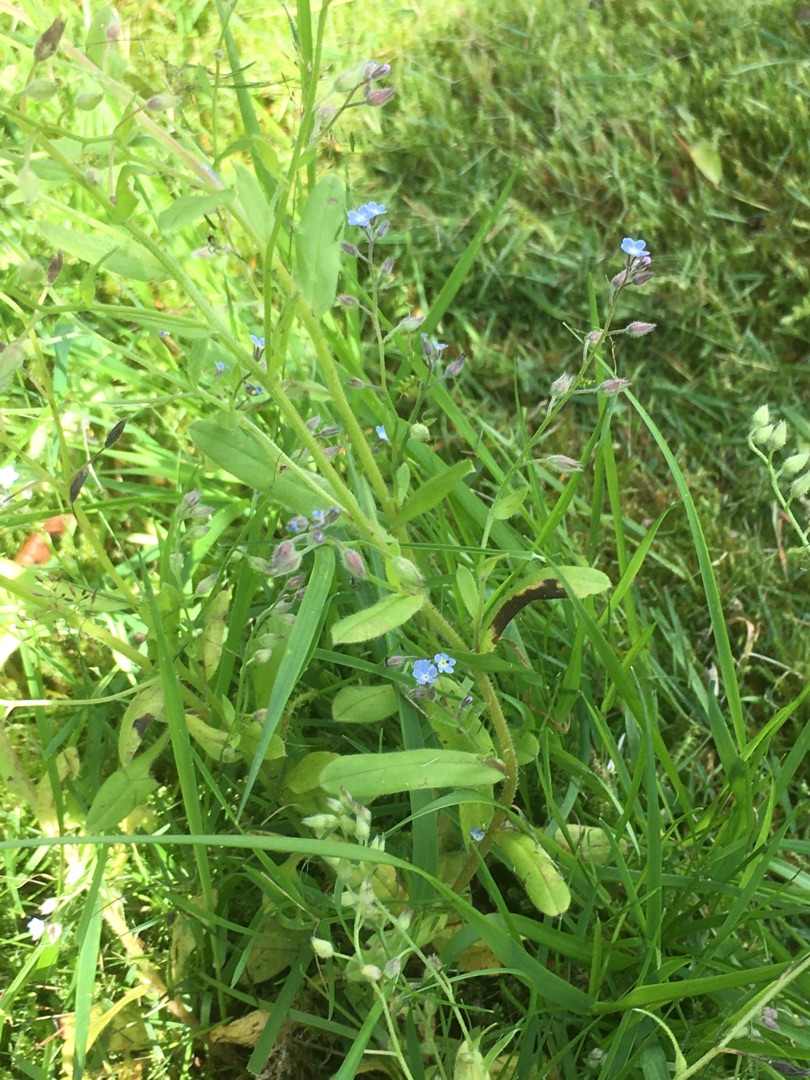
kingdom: Plantae
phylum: Tracheophyta
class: Magnoliopsida
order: Boraginales
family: Boraginaceae
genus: Myosotis
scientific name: Myosotis arvensis
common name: Mark-forglemmigej
